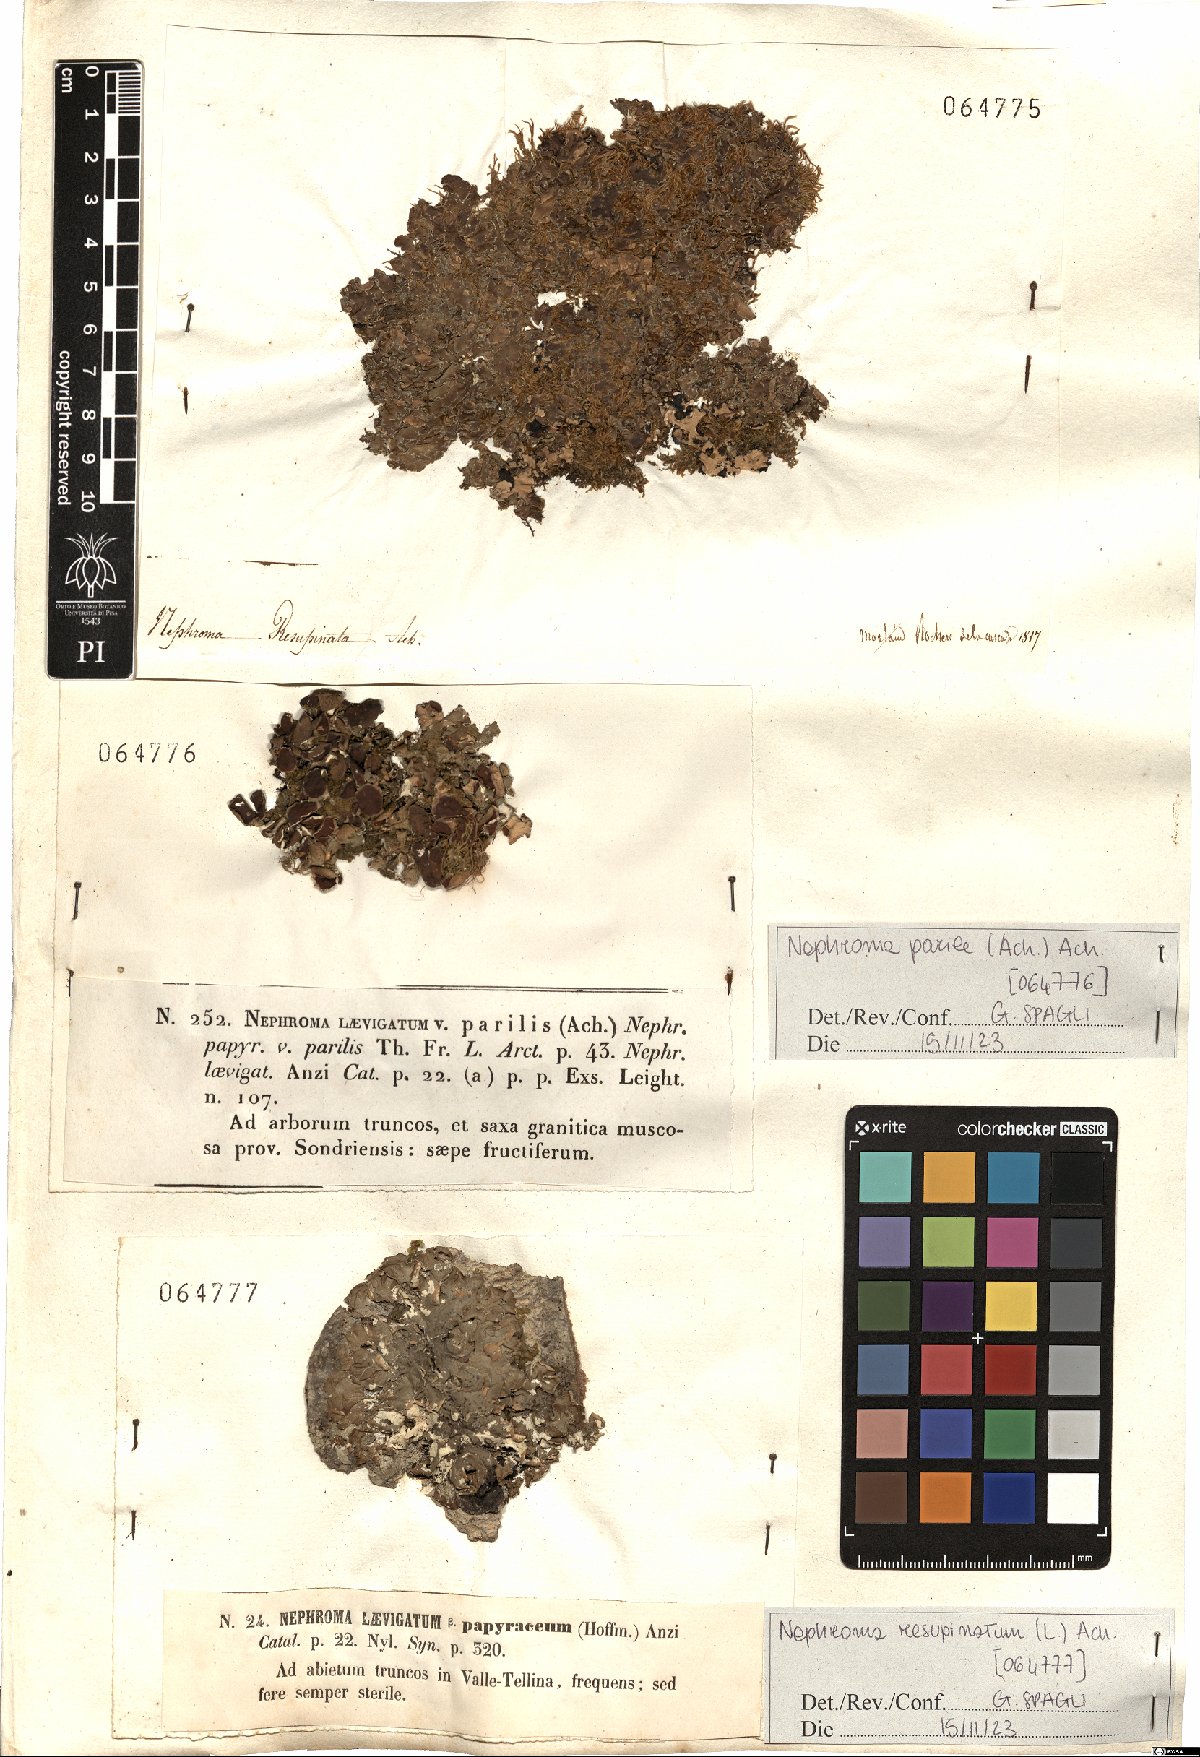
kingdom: Fungi
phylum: Ascomycota
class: Lecanoromycetes
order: Peltigerales
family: Nephromataceae
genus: Nephroma
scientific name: Nephroma resupinatum
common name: Pimpled kidney lichen
